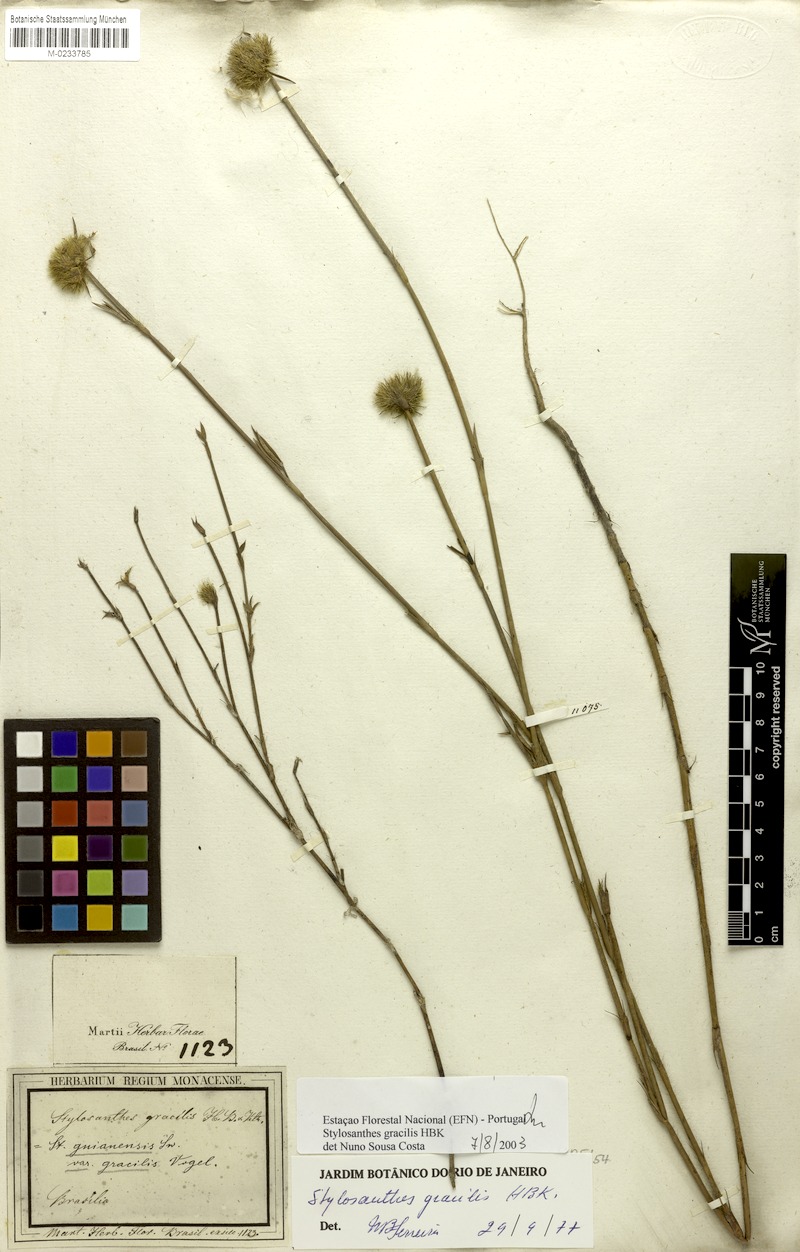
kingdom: Plantae
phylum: Tracheophyta
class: Magnoliopsida
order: Fabales
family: Fabaceae
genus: Stylosanthes
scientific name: Stylosanthes guianensis
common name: Pencil flower
